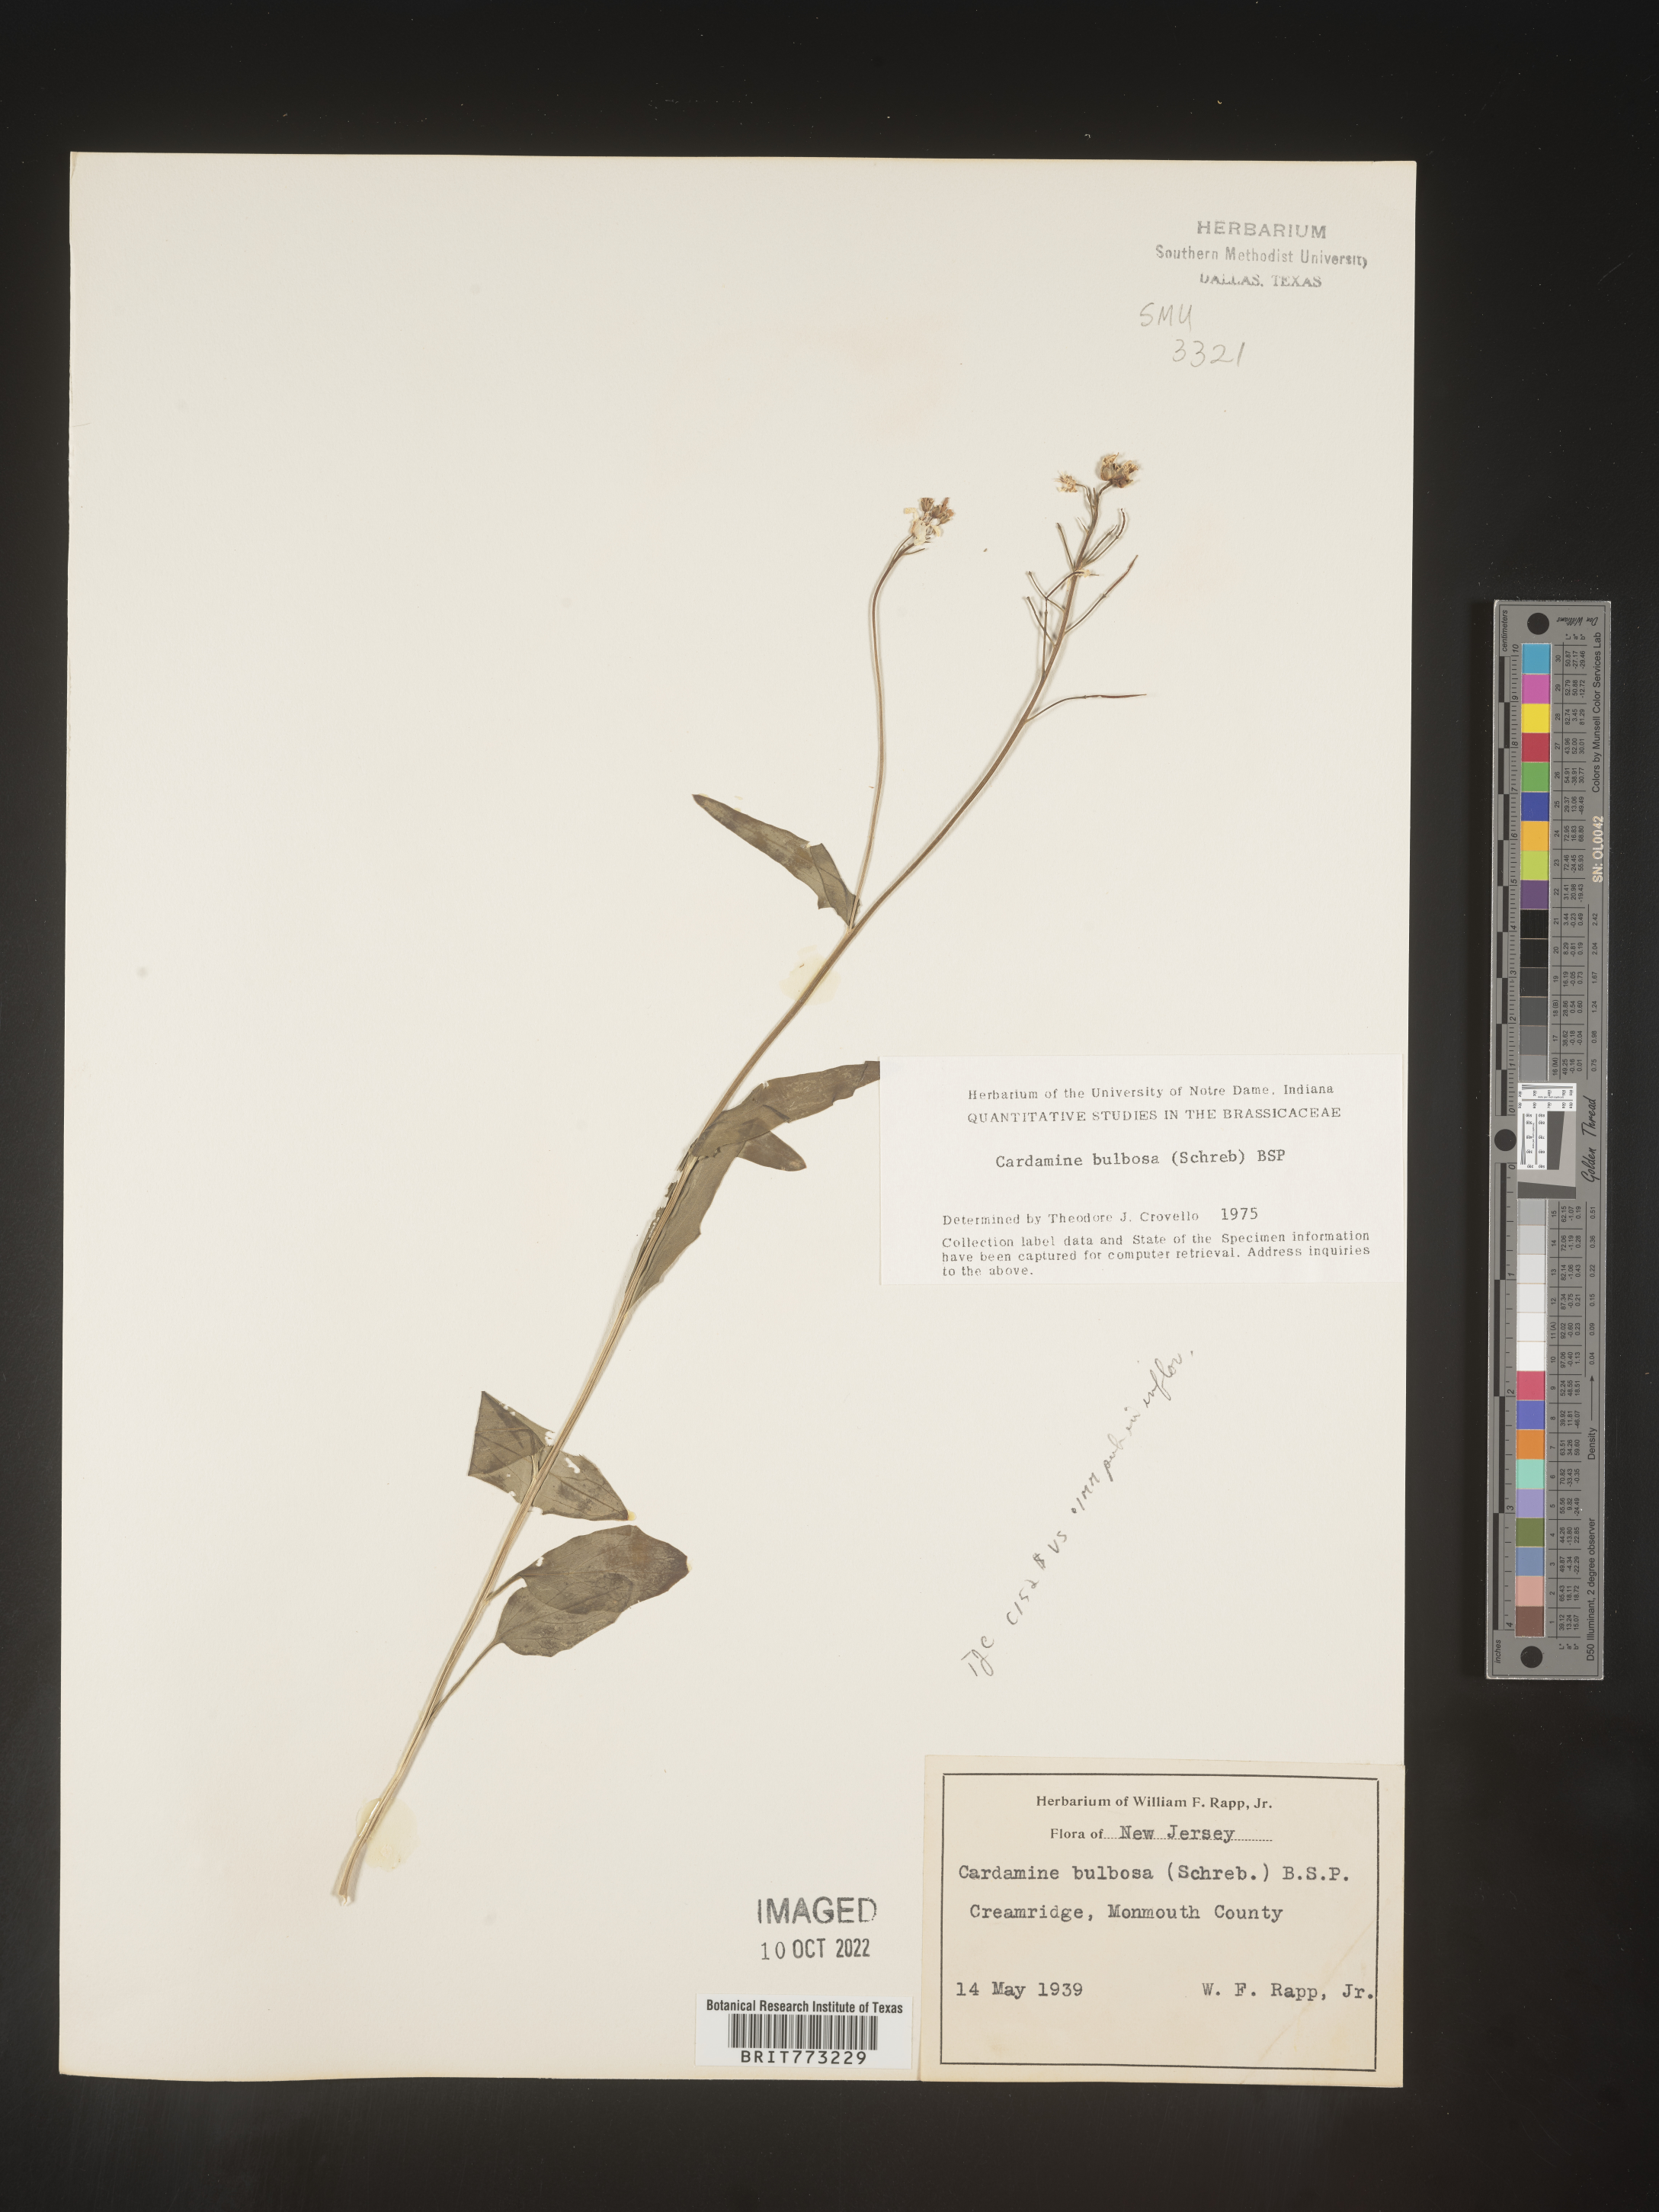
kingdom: Plantae
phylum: Tracheophyta
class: Magnoliopsida
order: Brassicales
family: Brassicaceae
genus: Cardamine
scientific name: Cardamine bulbosa
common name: Spring cress
